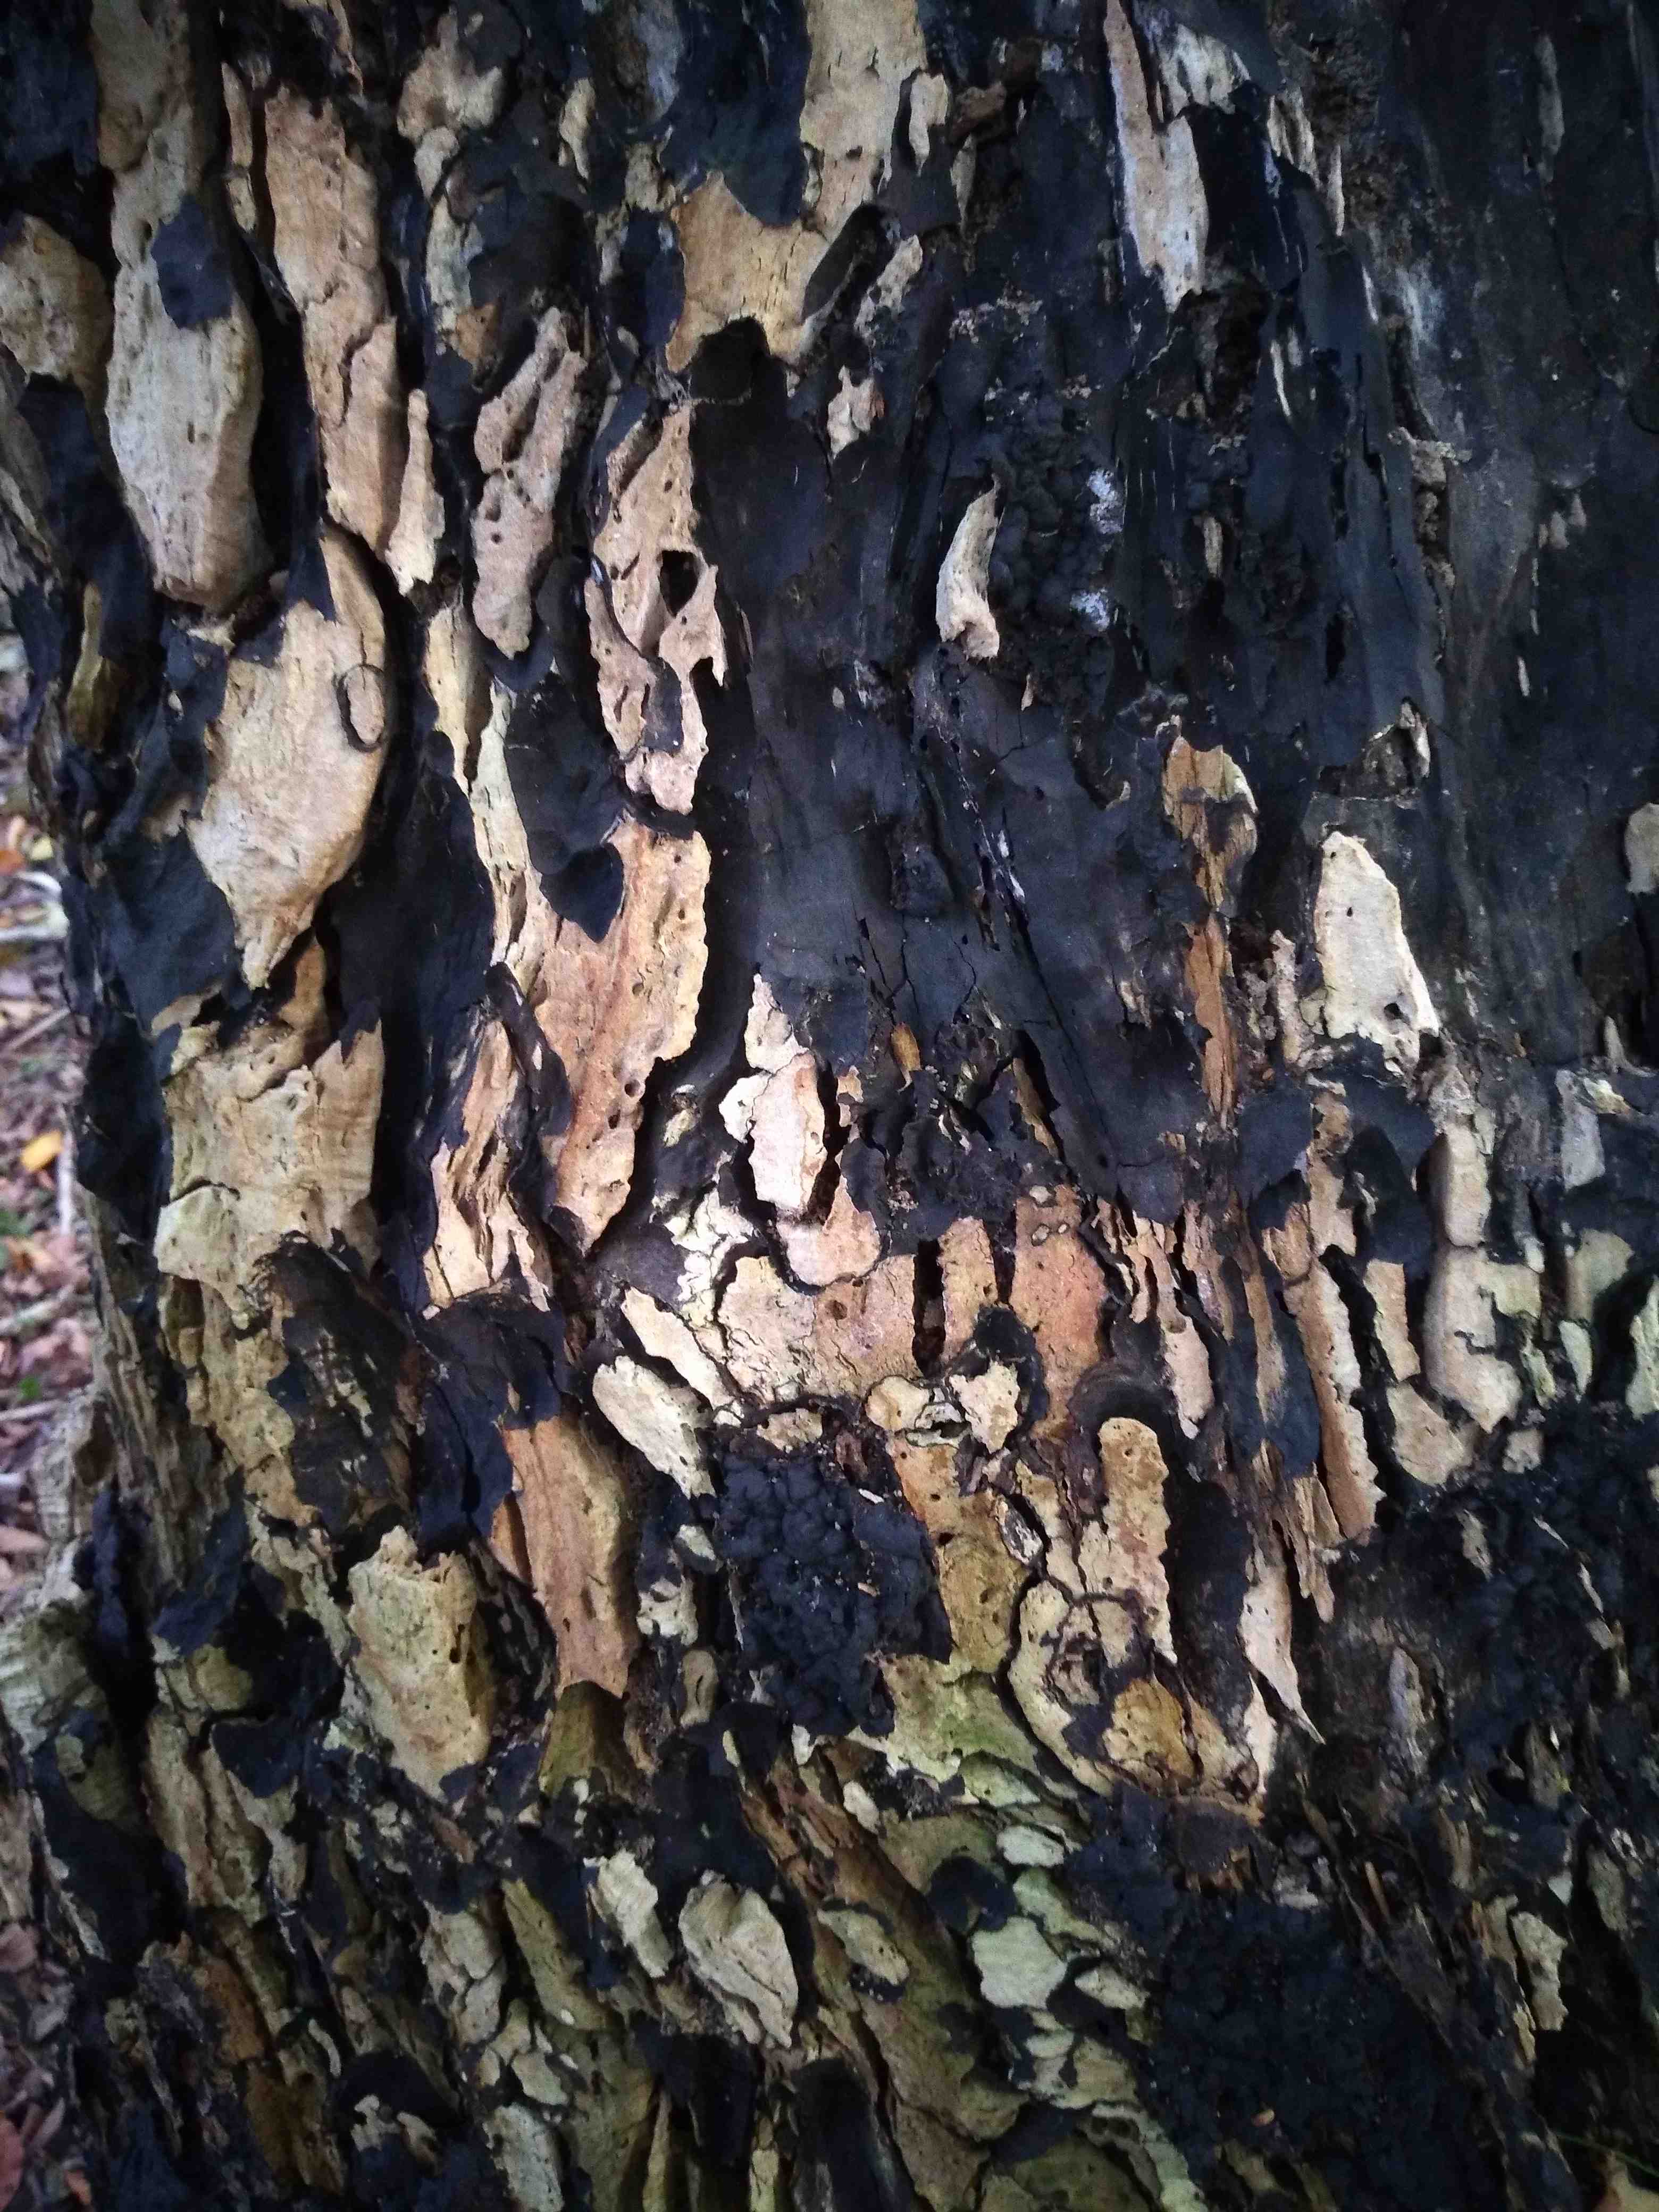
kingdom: Fungi
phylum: Ascomycota
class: Sordariomycetes
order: Xylariales
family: Xylariaceae
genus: Kretzschmaria
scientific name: Kretzschmaria deusta
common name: stor kulsvamp
